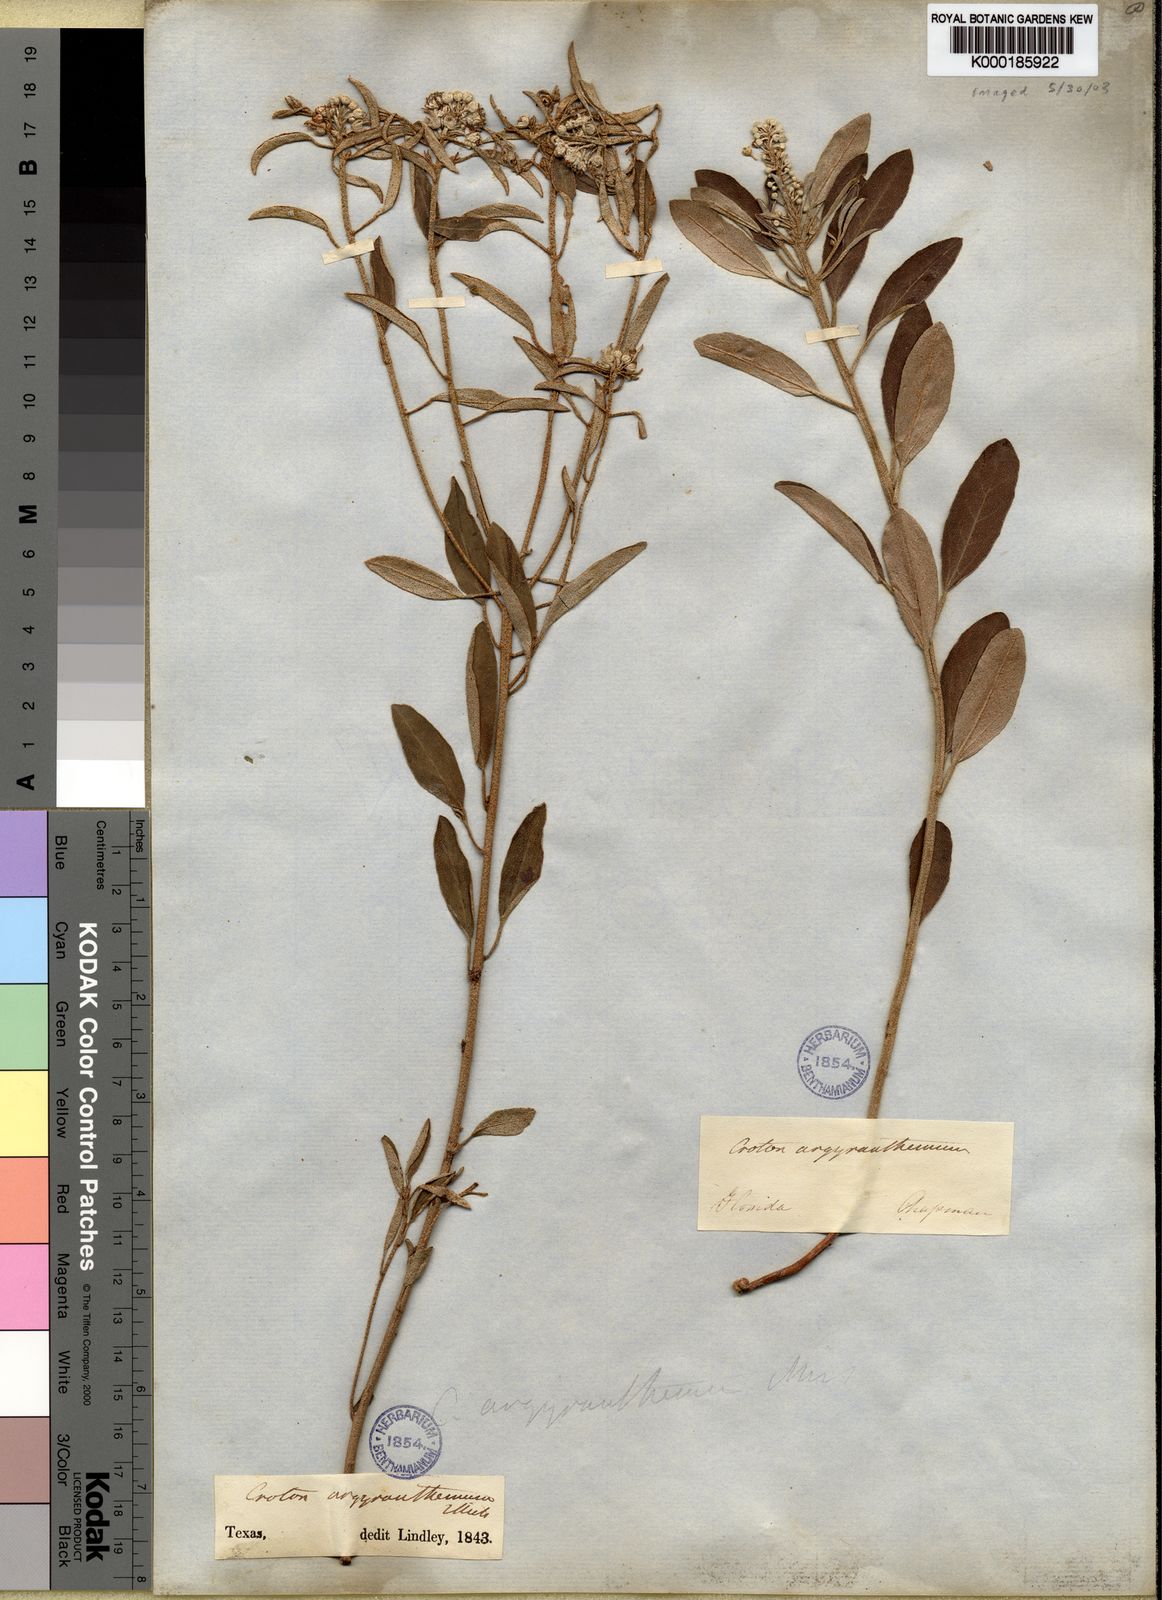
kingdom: Plantae
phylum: Tracheophyta
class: Magnoliopsida
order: Malpighiales
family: Euphorbiaceae
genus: Croton
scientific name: Croton argyranthemus
